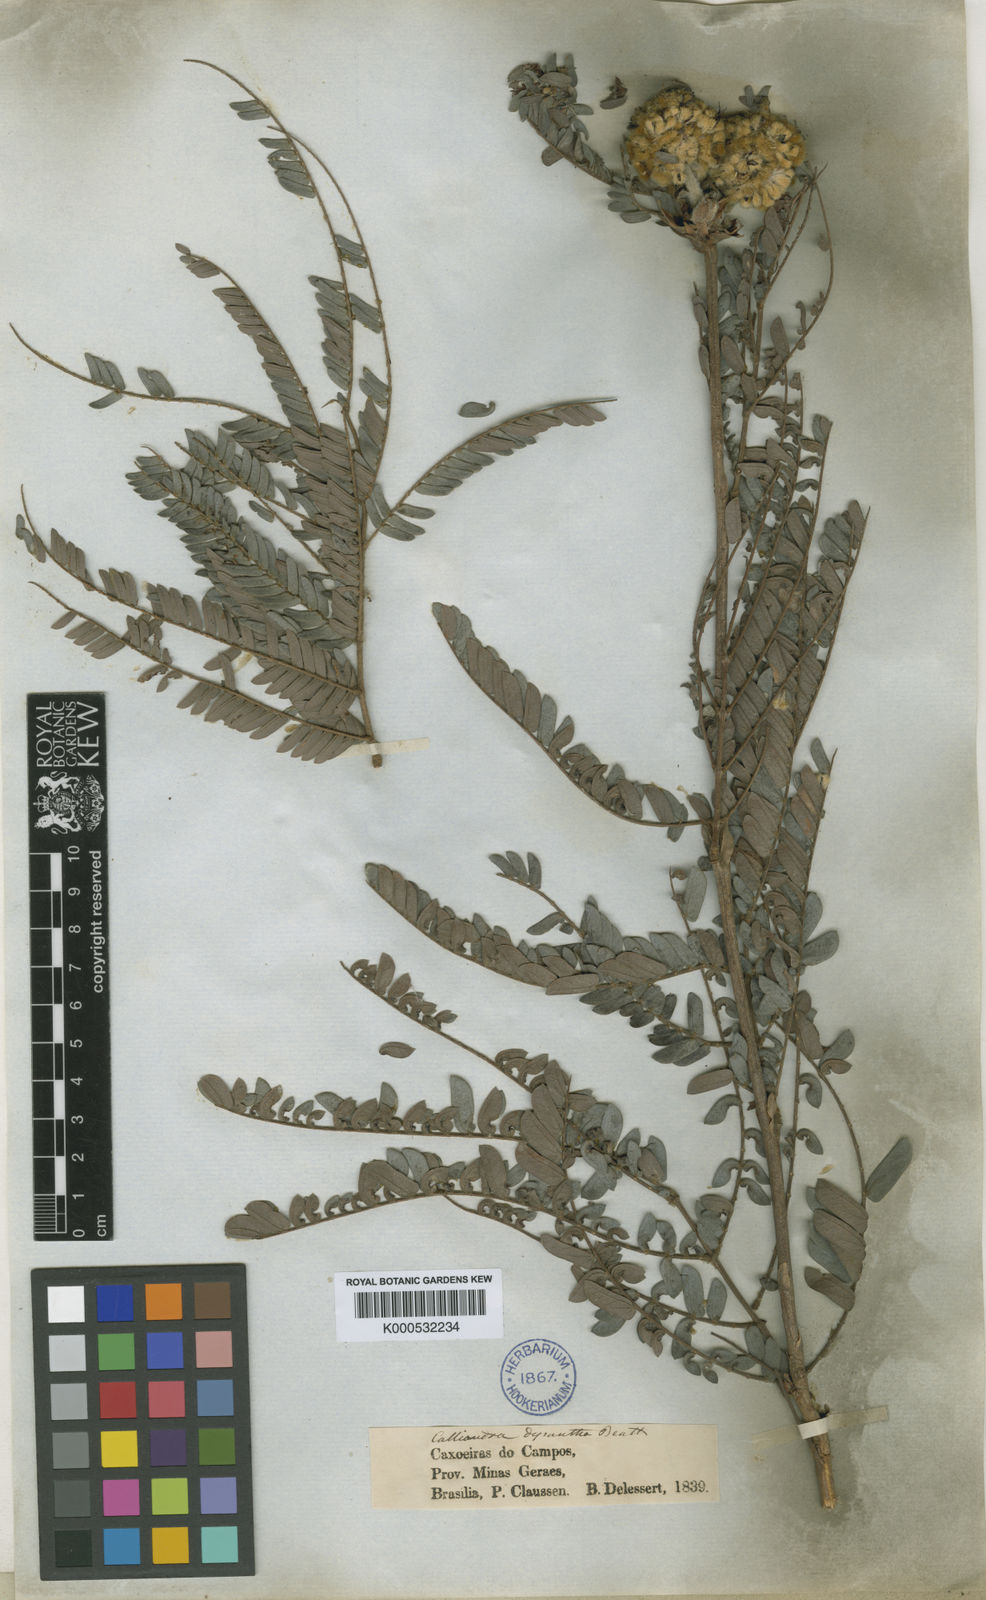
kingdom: Plantae
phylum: Tracheophyta
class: Magnoliopsida
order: Fabales
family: Fabaceae
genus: Calliandra
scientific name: Calliandra dysantha
